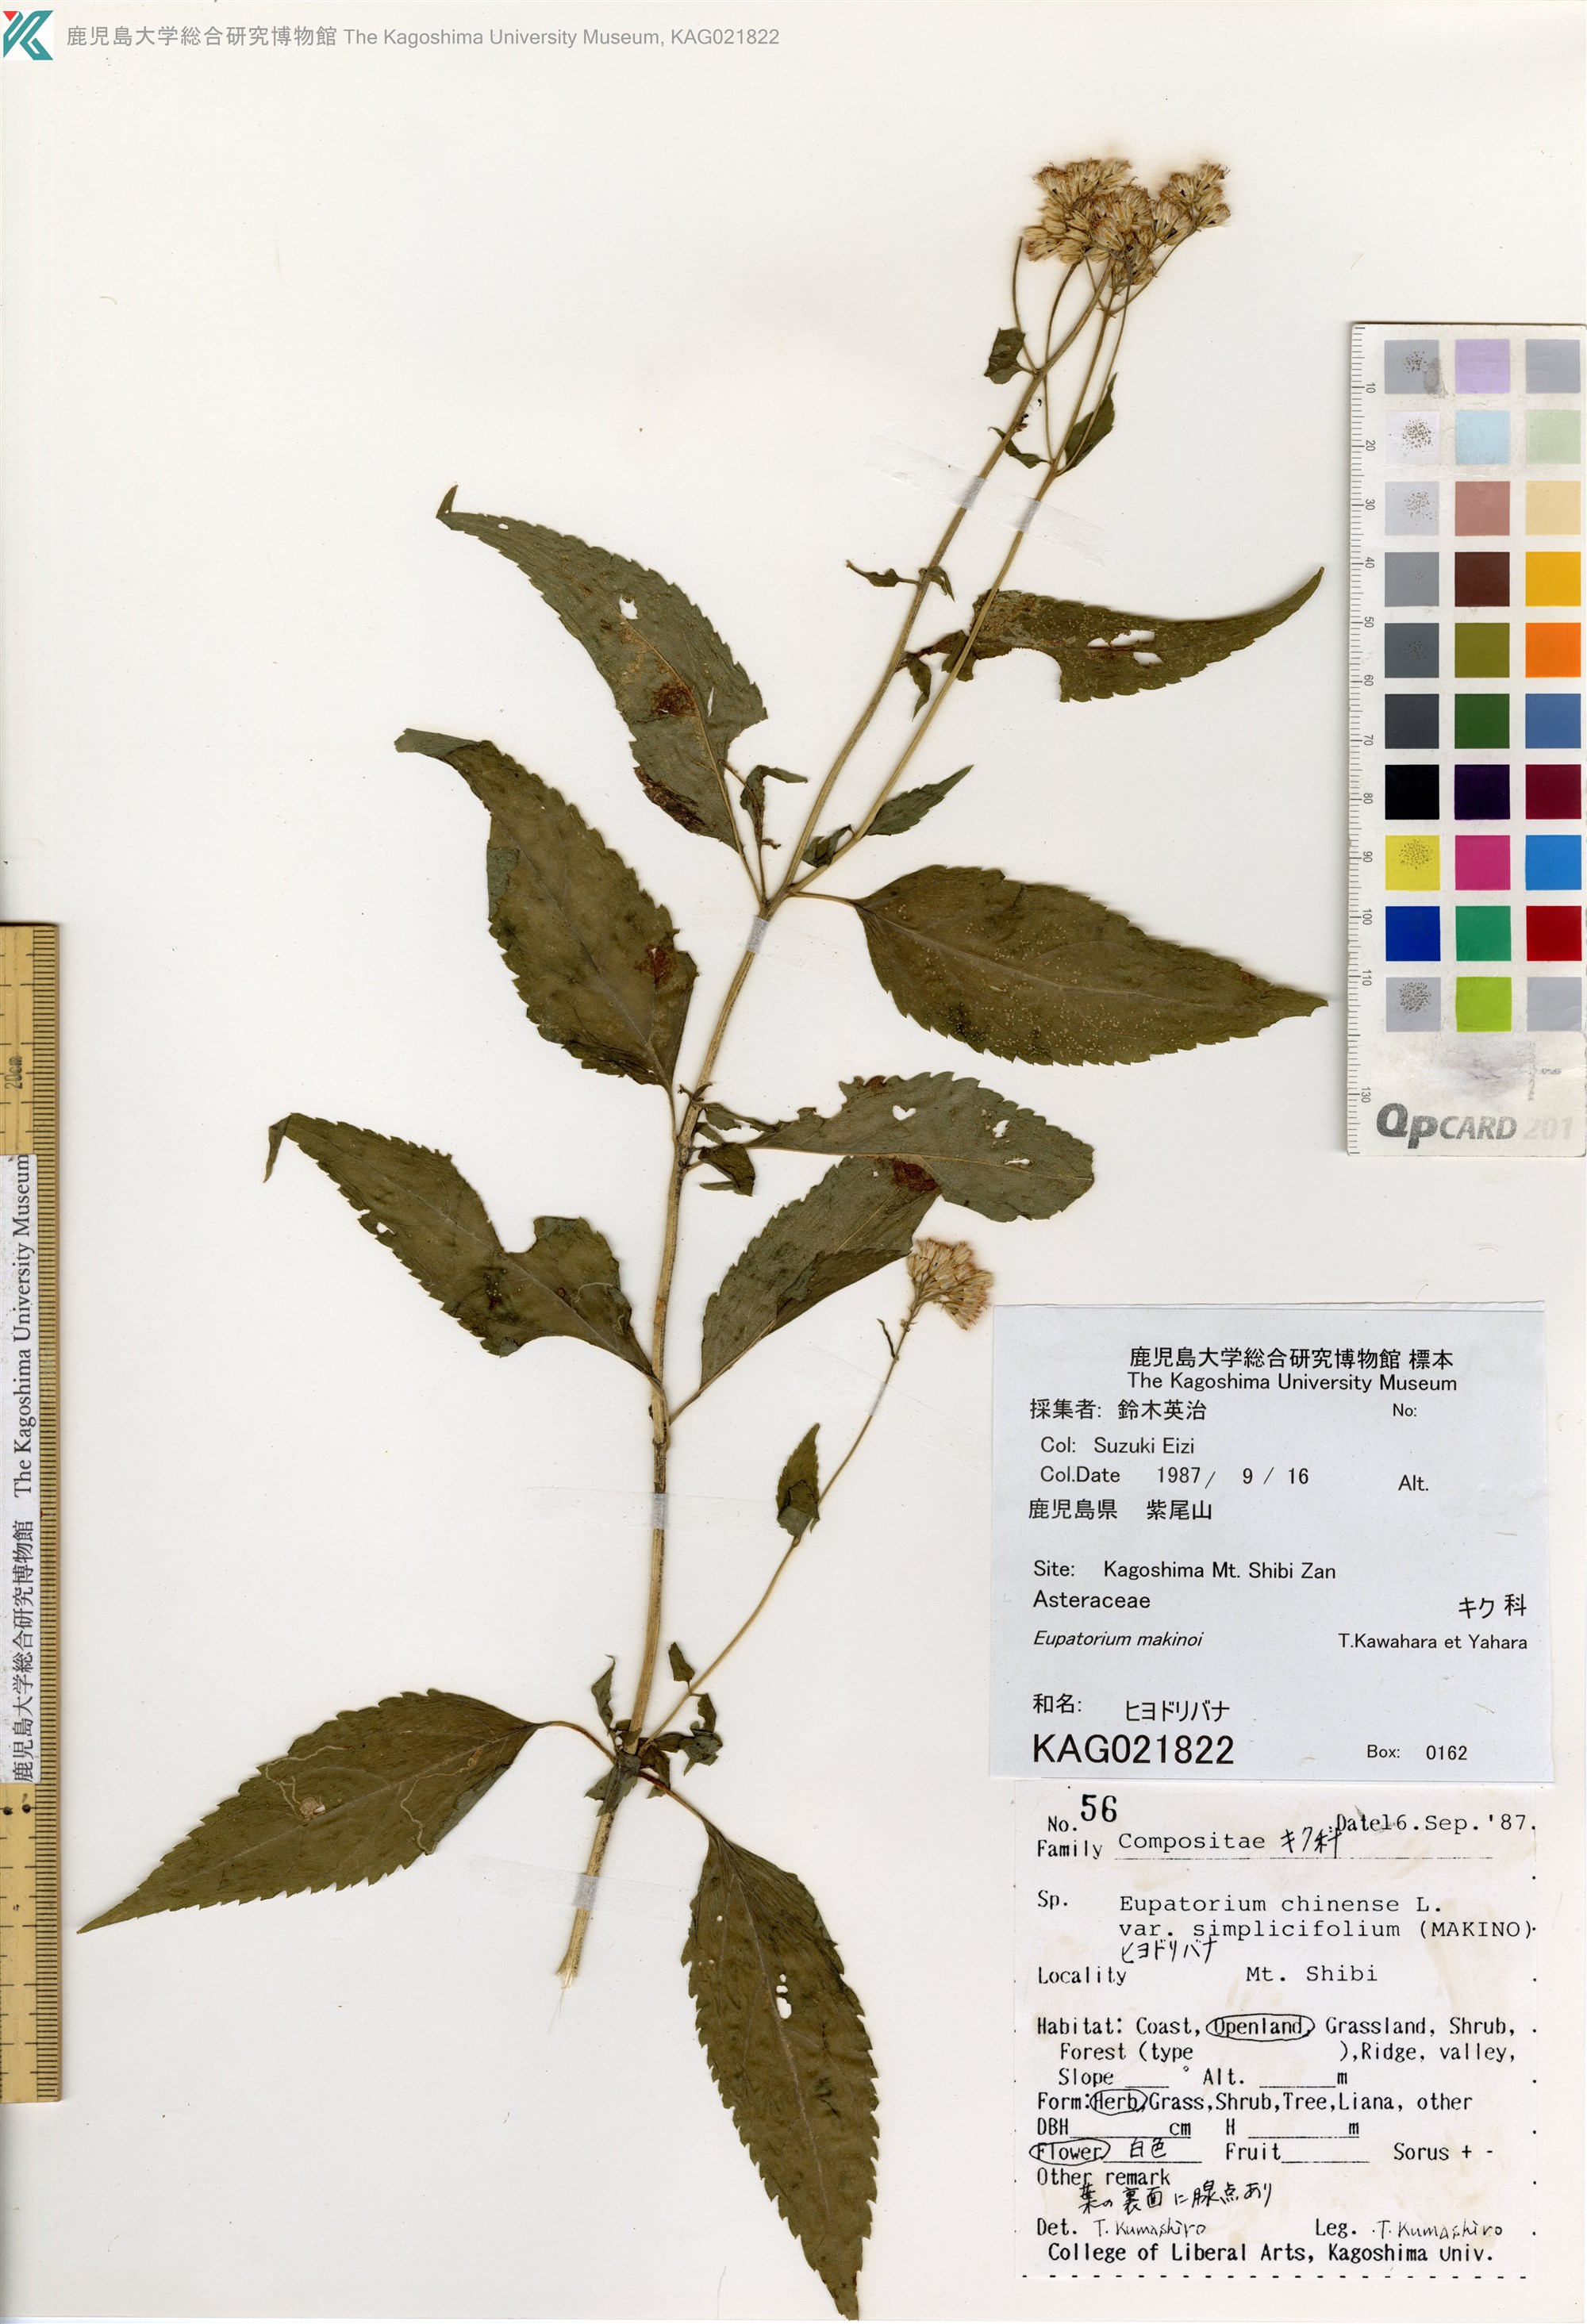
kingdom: Plantae
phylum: Tracheophyta
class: Magnoliopsida
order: Asterales
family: Asteraceae
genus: Eupatorium
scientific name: Eupatorium chinense
